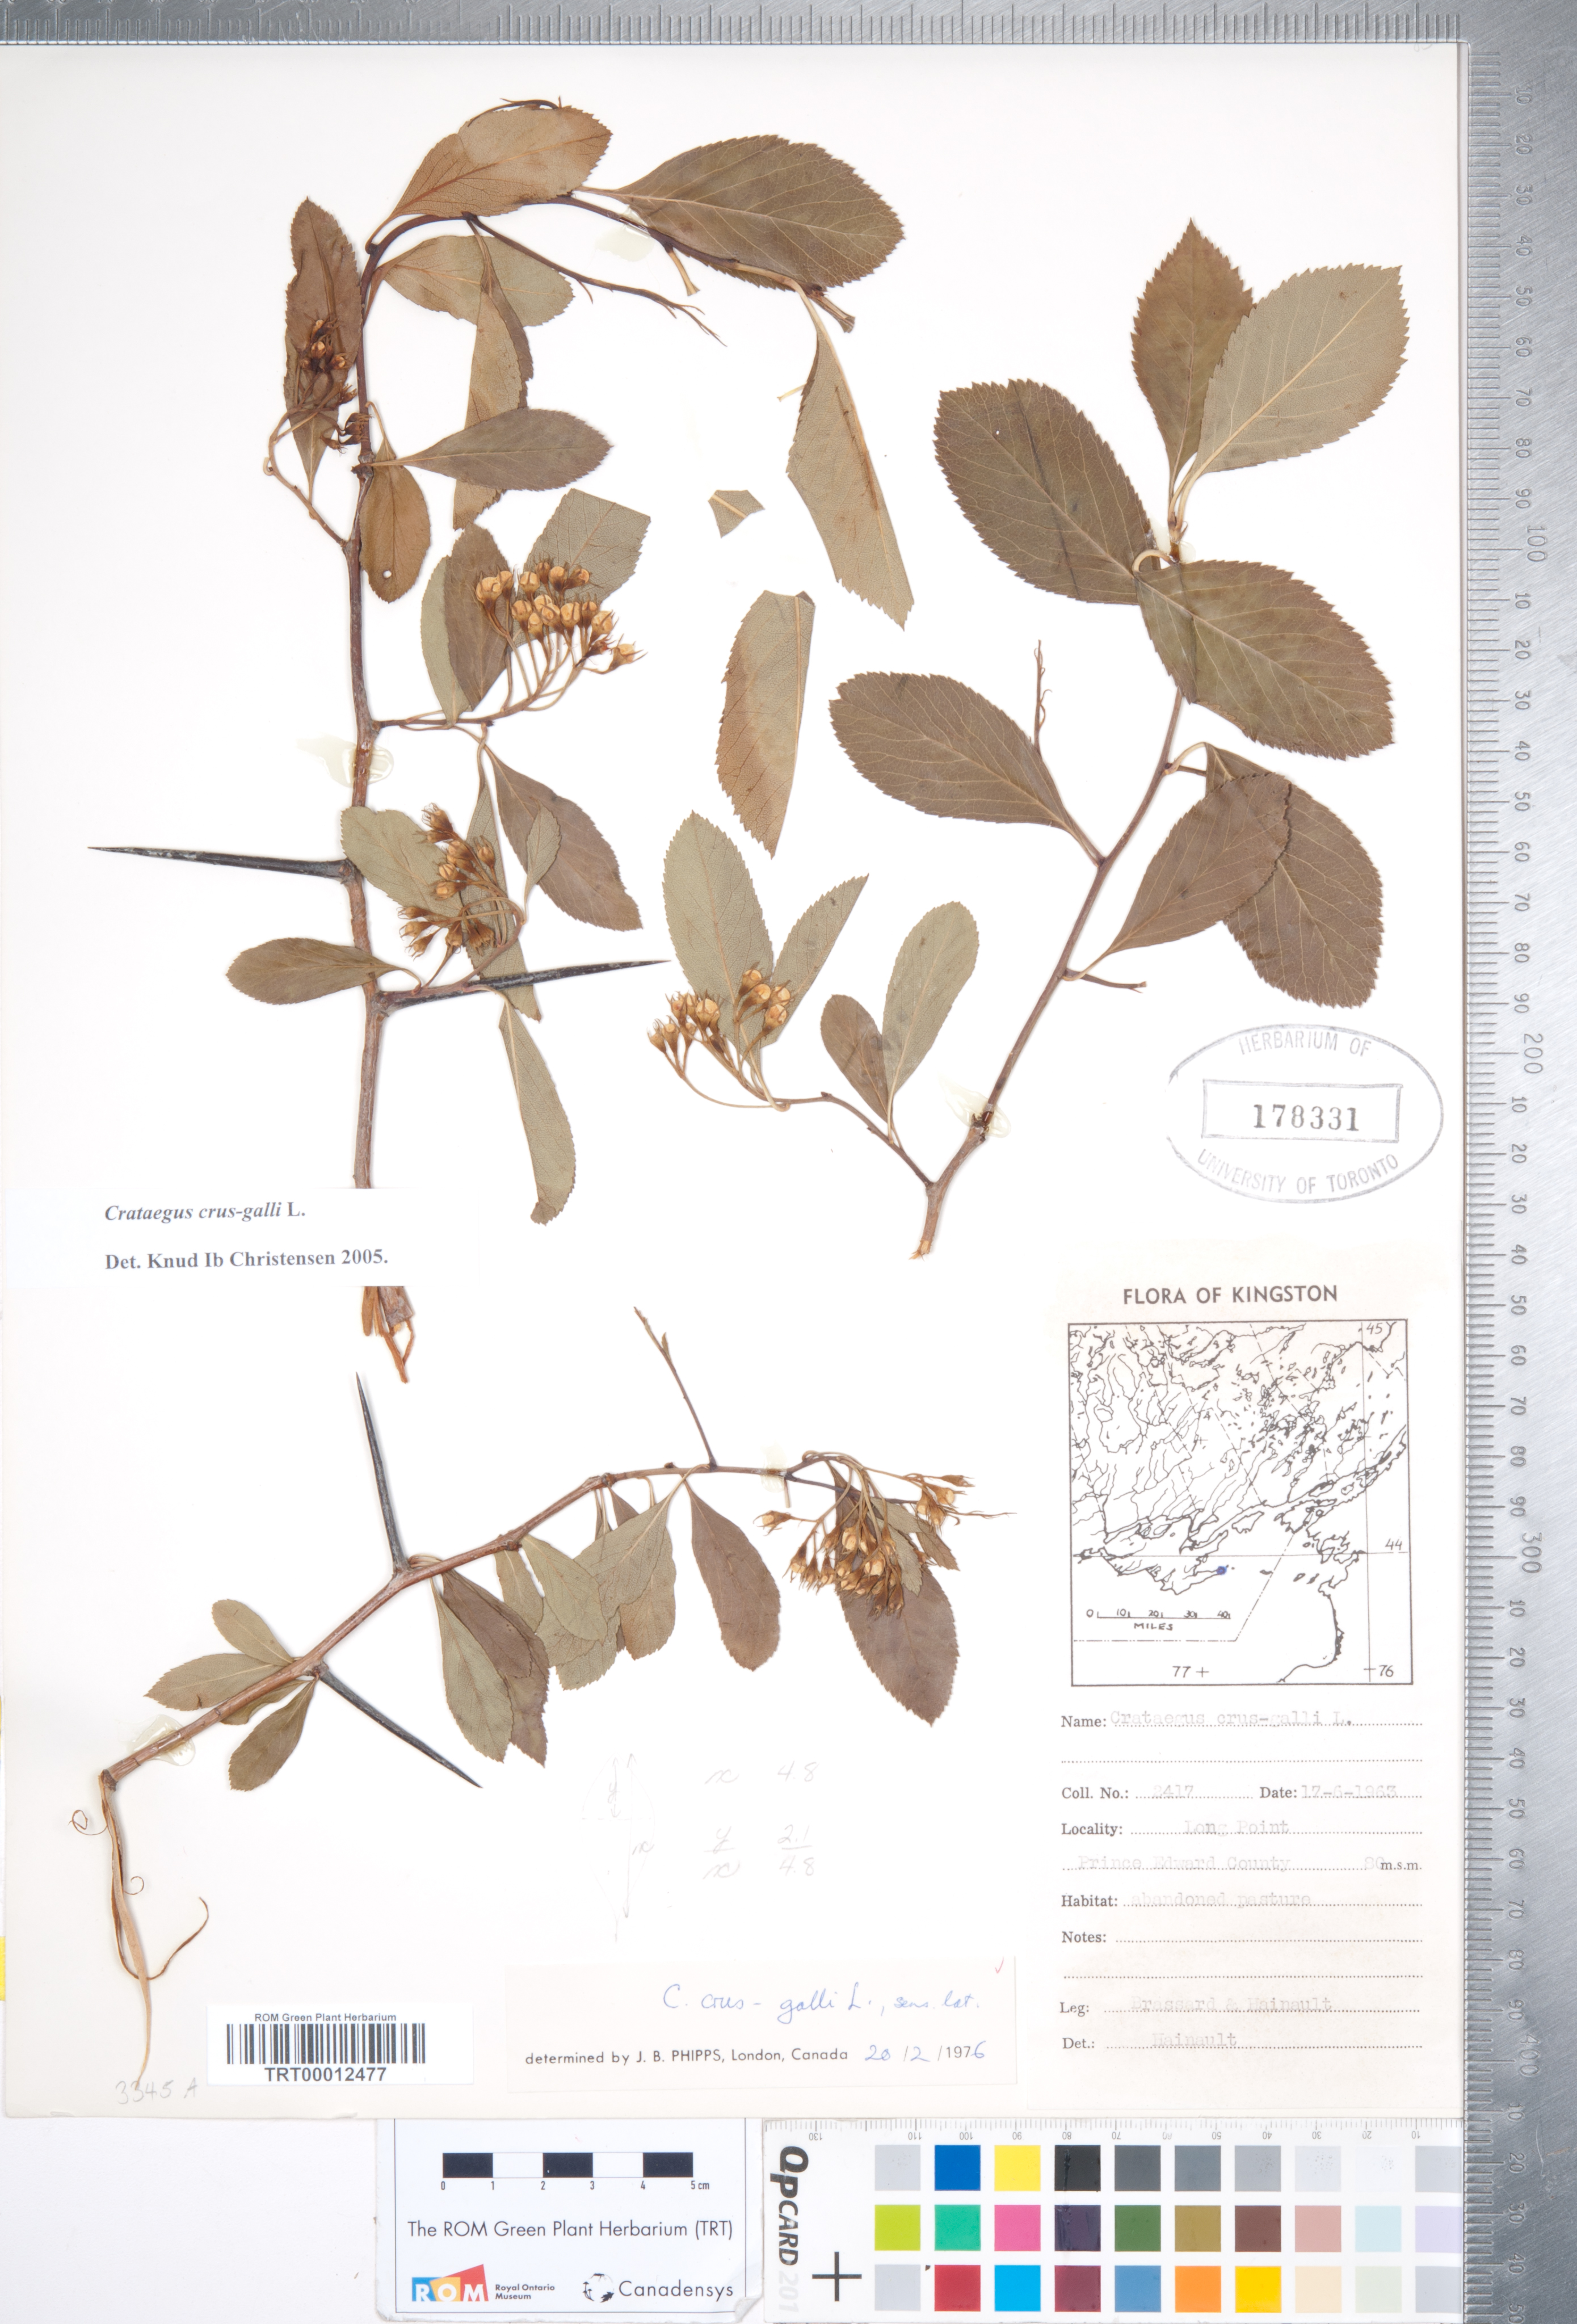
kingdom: Plantae
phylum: Tracheophyta
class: Magnoliopsida
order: Rosales
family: Rosaceae
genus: Crataegus
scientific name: Crataegus crus-galli
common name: Cockspurthorn
